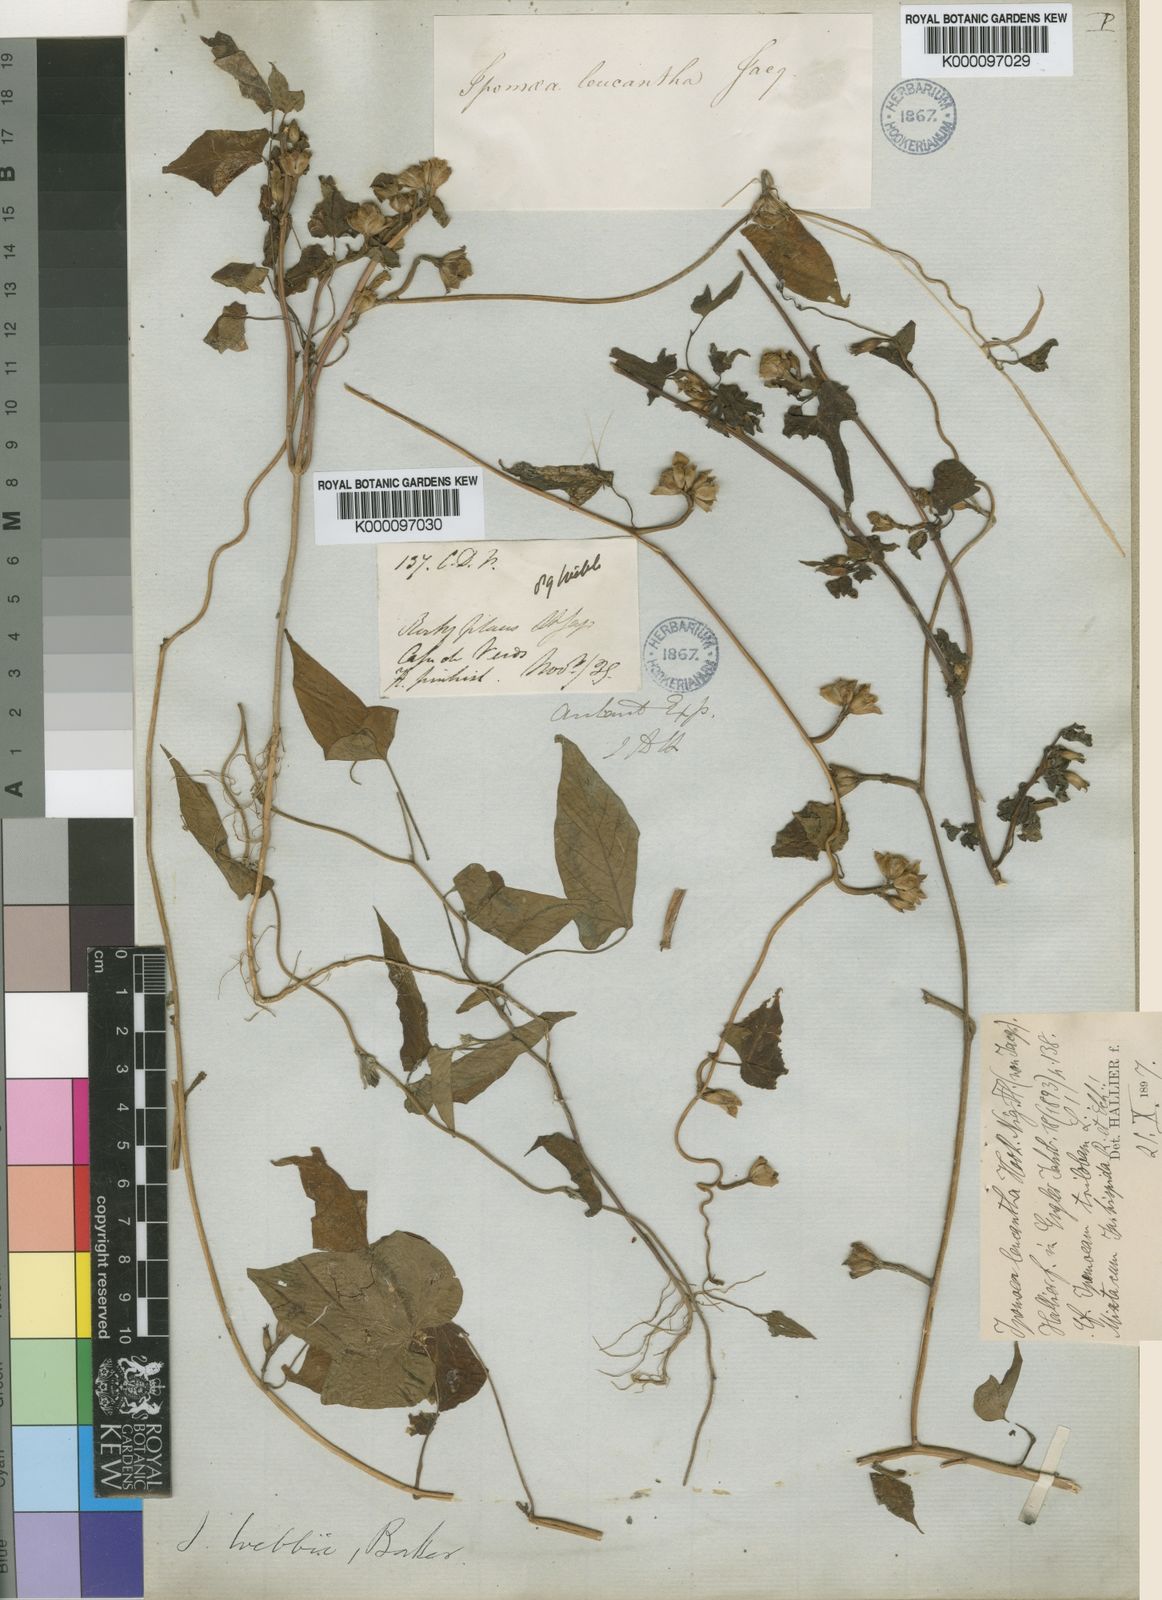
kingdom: Plantae
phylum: Tracheophyta
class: Magnoliopsida
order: Solanales
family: Convolvulaceae
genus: Ipomoea
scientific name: Ipomoea leucantha
